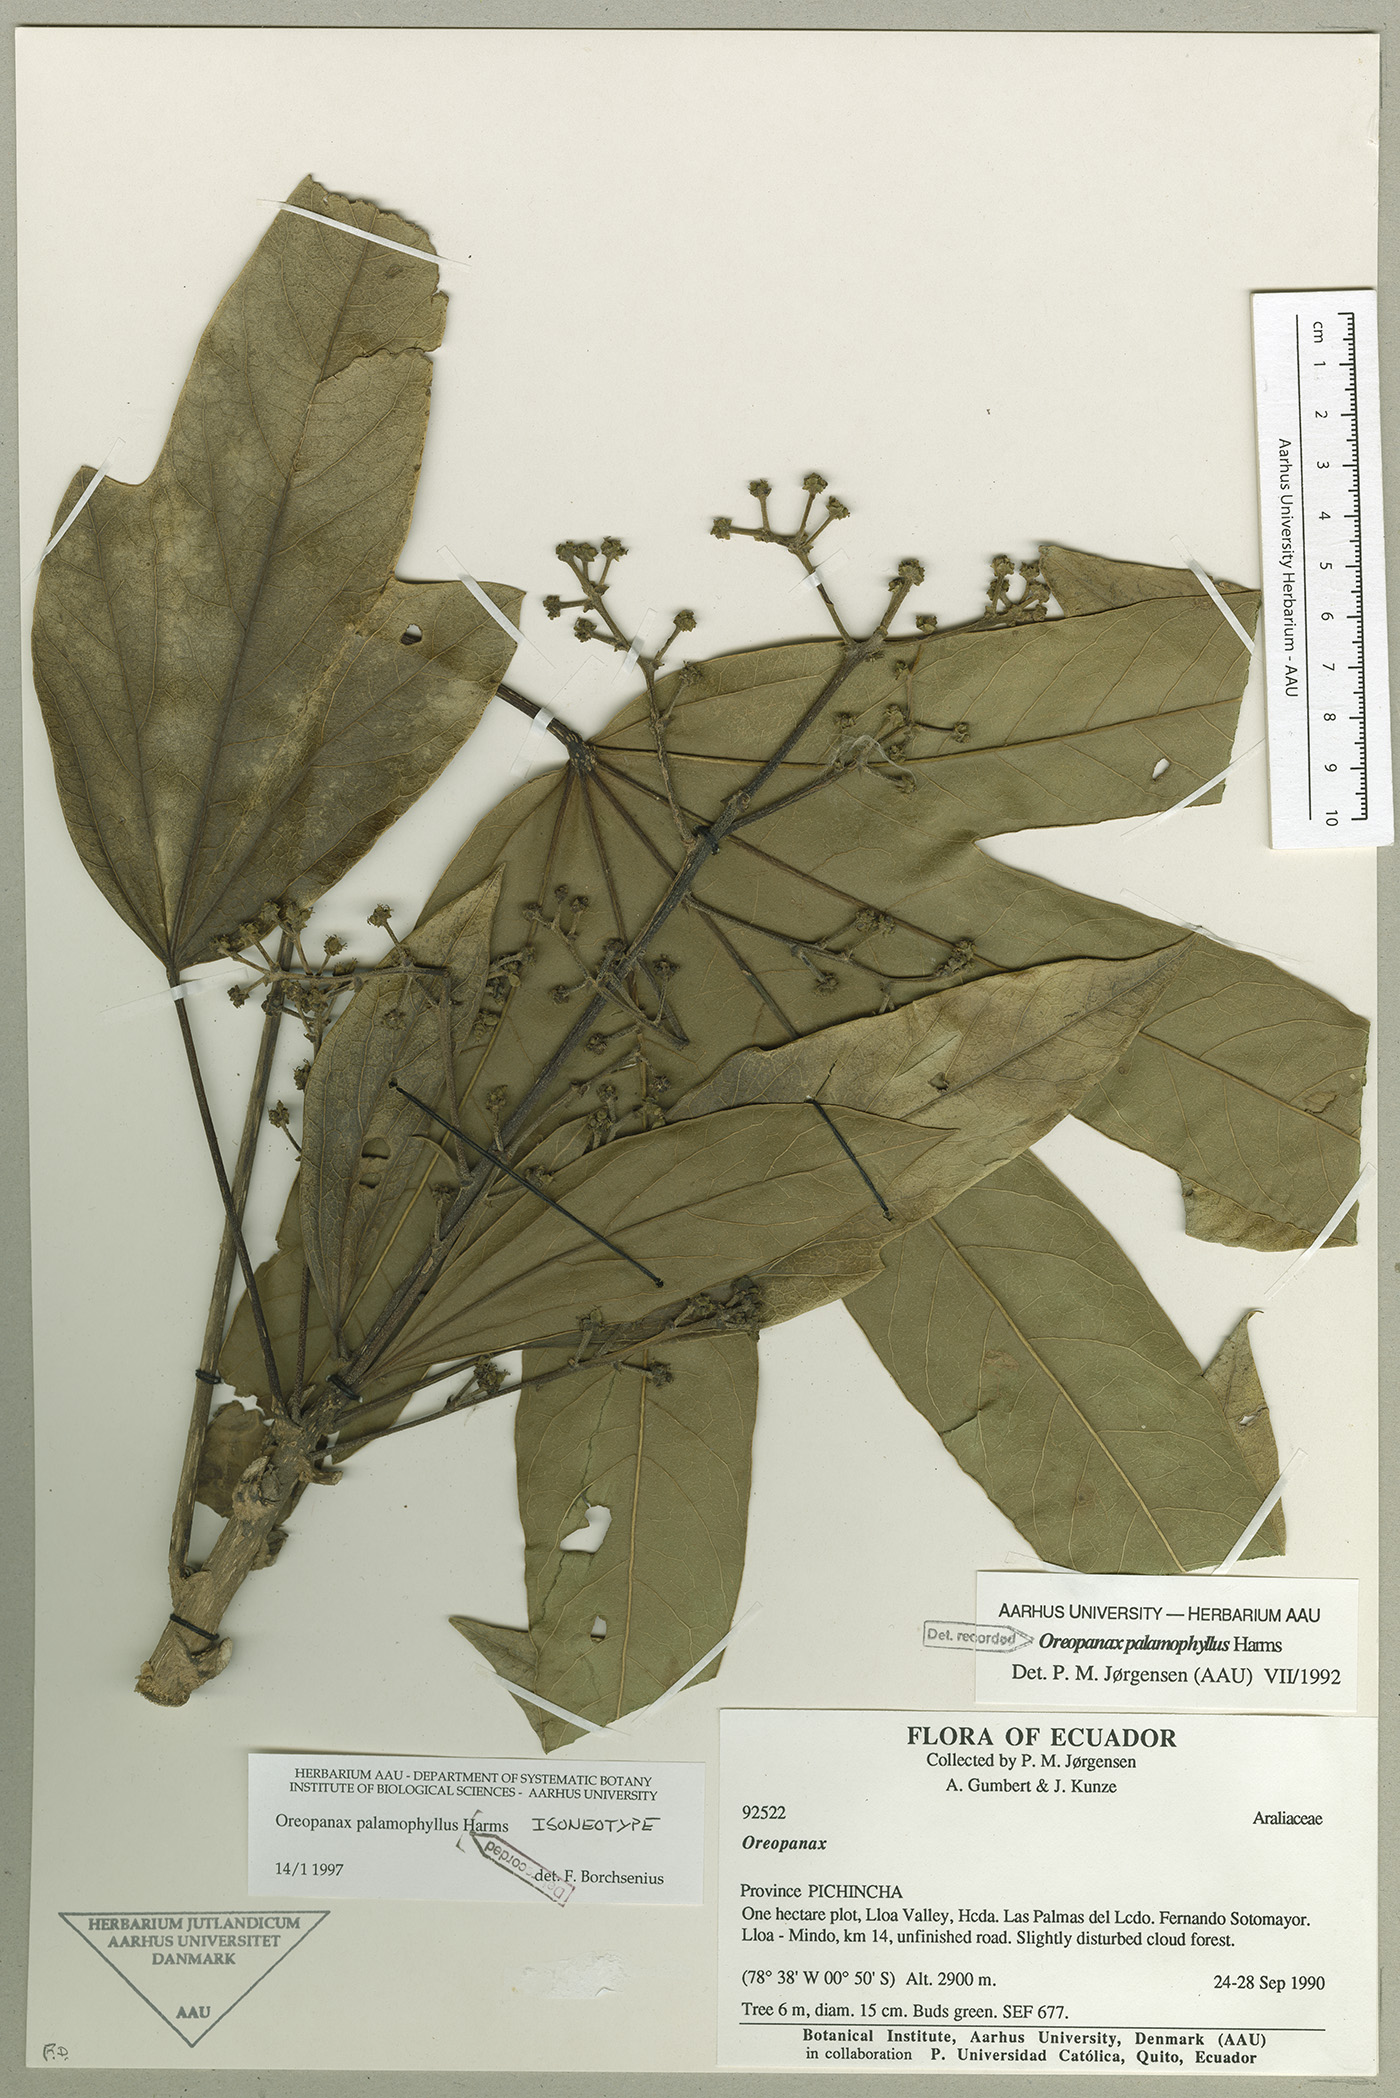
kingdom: Plantae
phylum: Tracheophyta
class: Magnoliopsida
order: Apiales
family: Araliaceae
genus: Oreopanax
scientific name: Oreopanax palamophyllus
